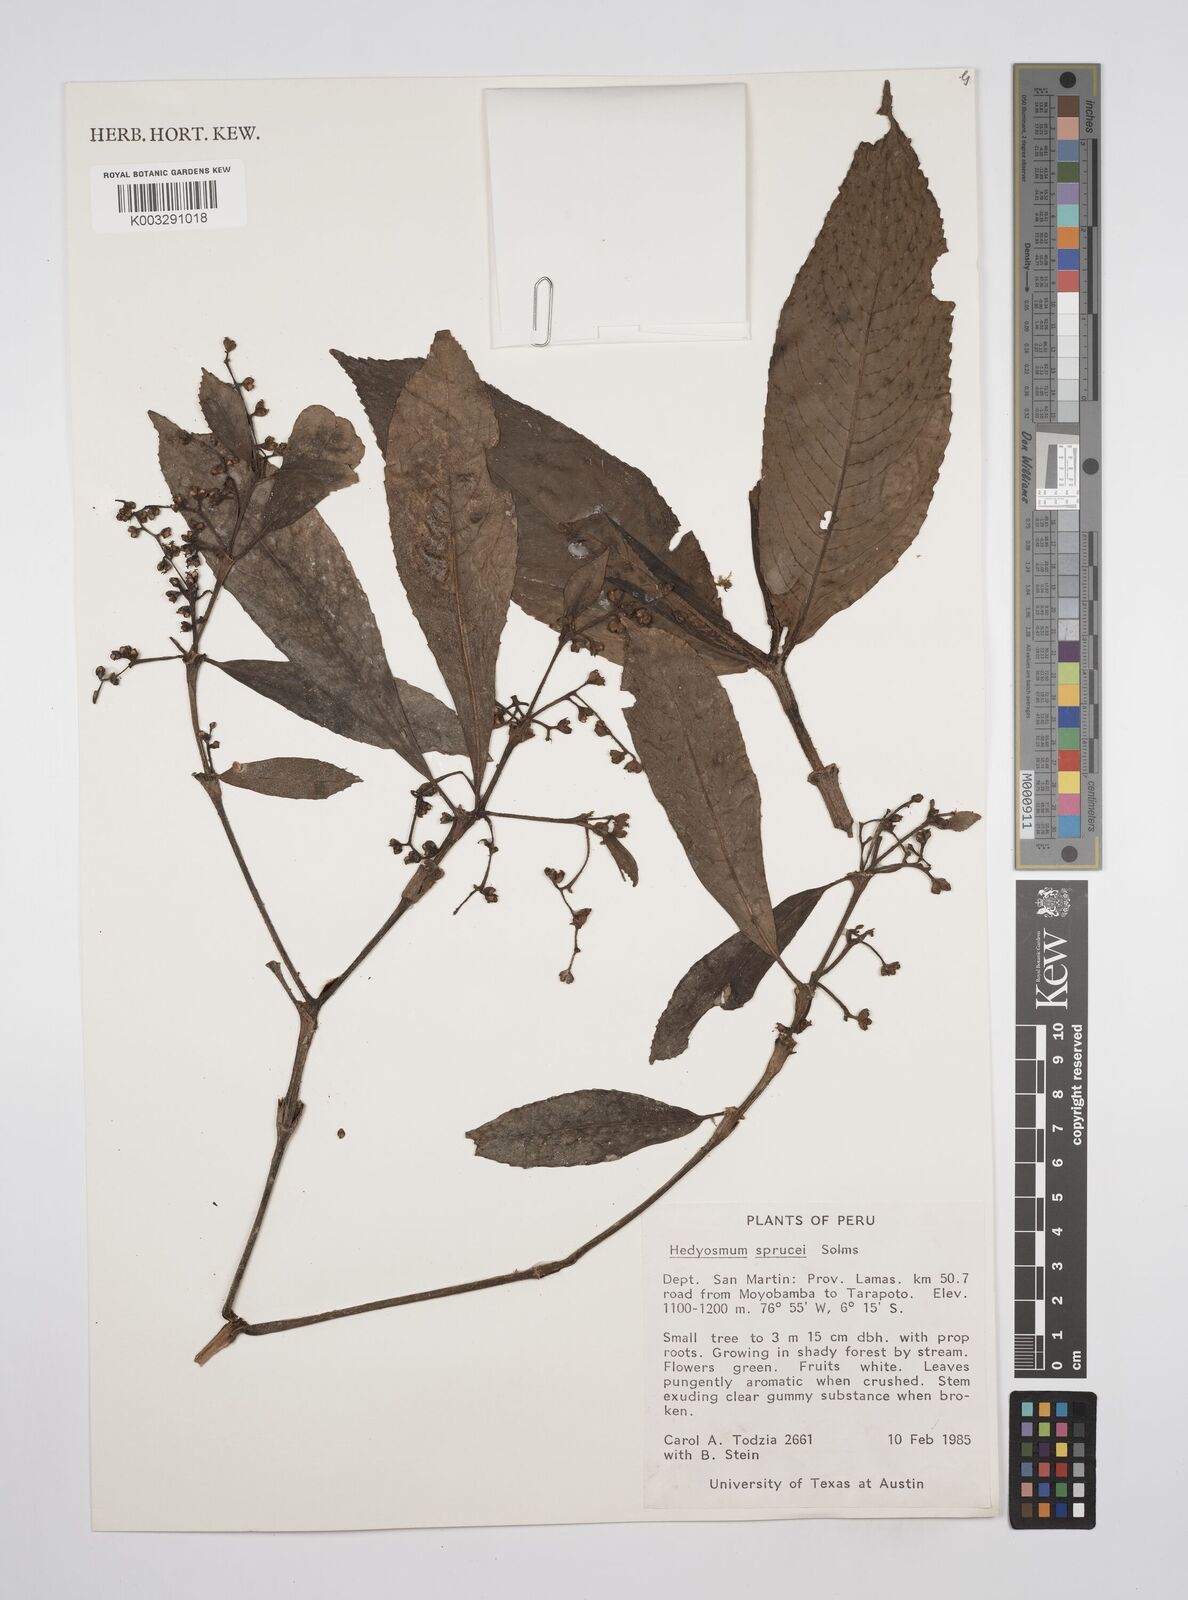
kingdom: Plantae
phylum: Tracheophyta
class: Magnoliopsida
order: Chloranthales
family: Chloranthaceae
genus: Hedyosmum
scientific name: Hedyosmum sprucei
